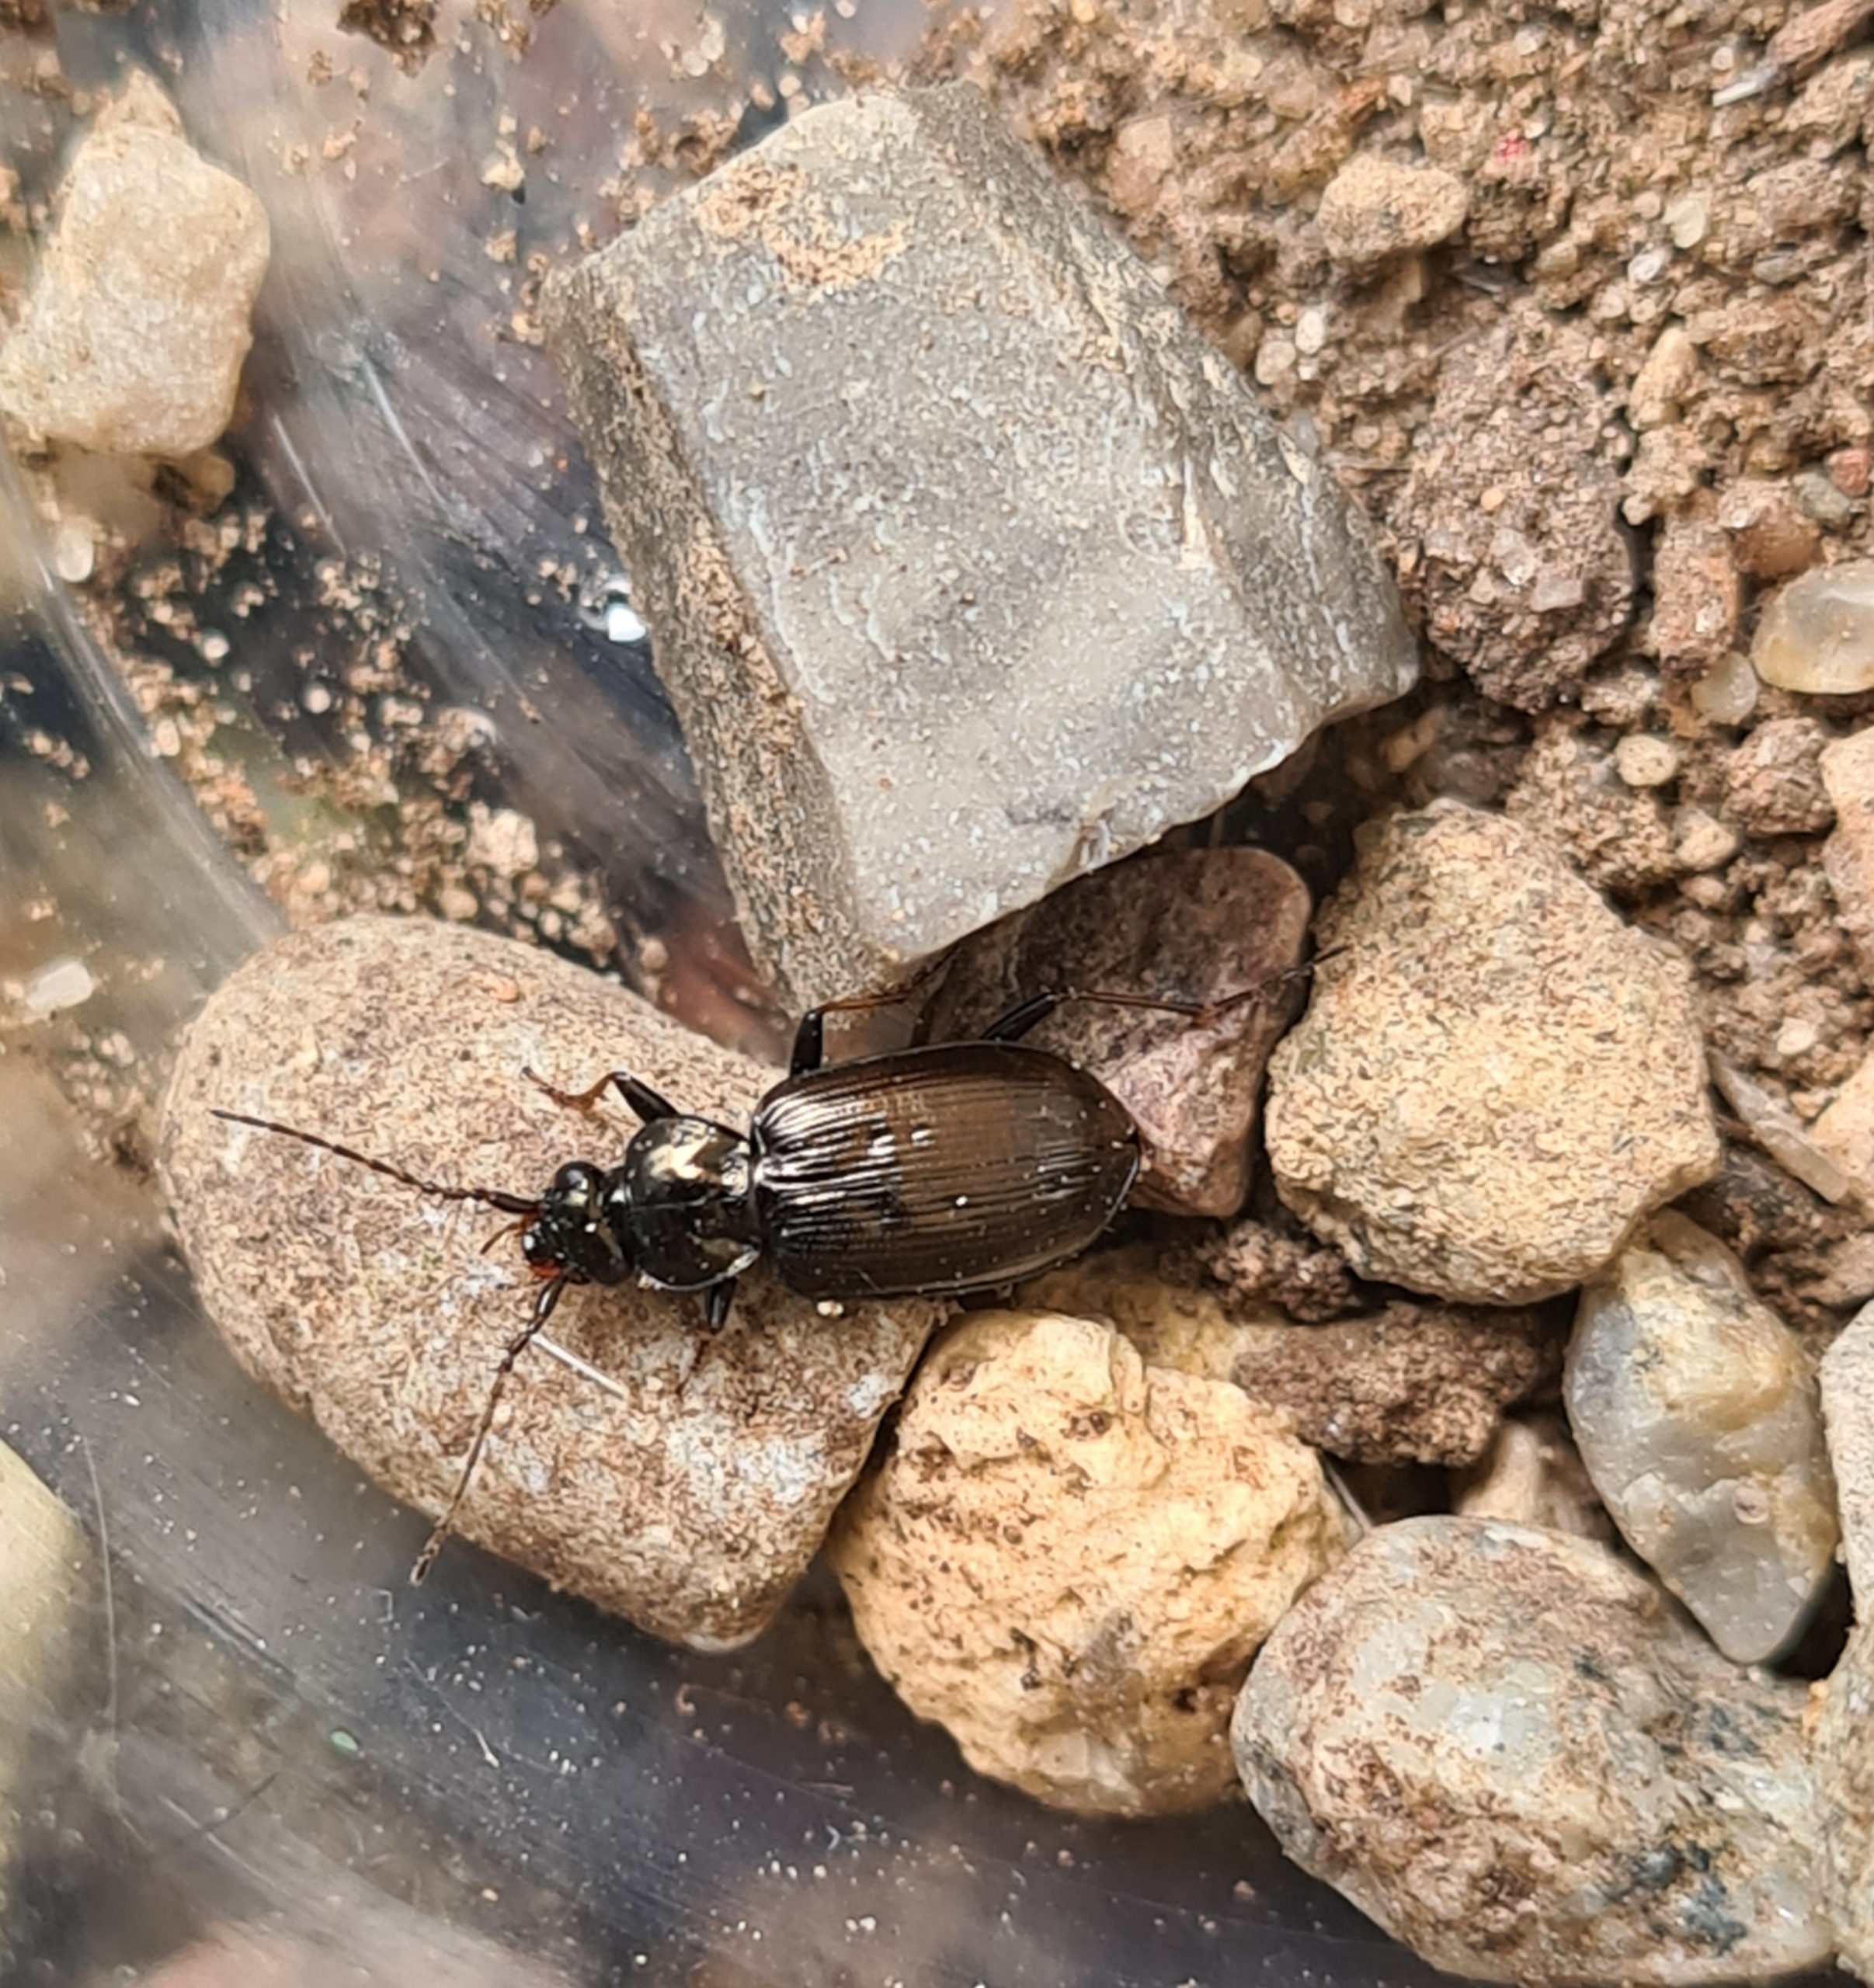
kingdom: Animalia
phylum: Arthropoda
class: Insecta
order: Coleoptera
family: Carabidae
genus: Loricera
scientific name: Loricera pilicornis
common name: Børsteløber
